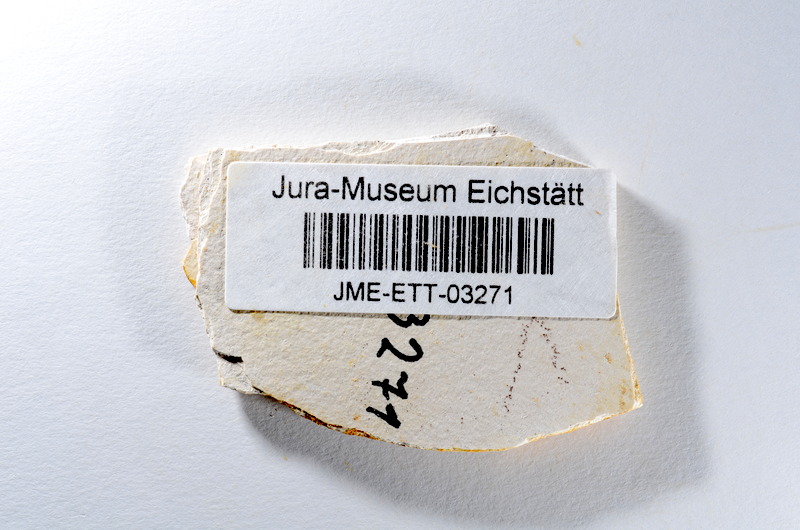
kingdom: Animalia
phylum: Chordata
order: Salmoniformes
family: Orthogonikleithridae
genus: Orthogonikleithrus
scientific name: Orthogonikleithrus hoelli
